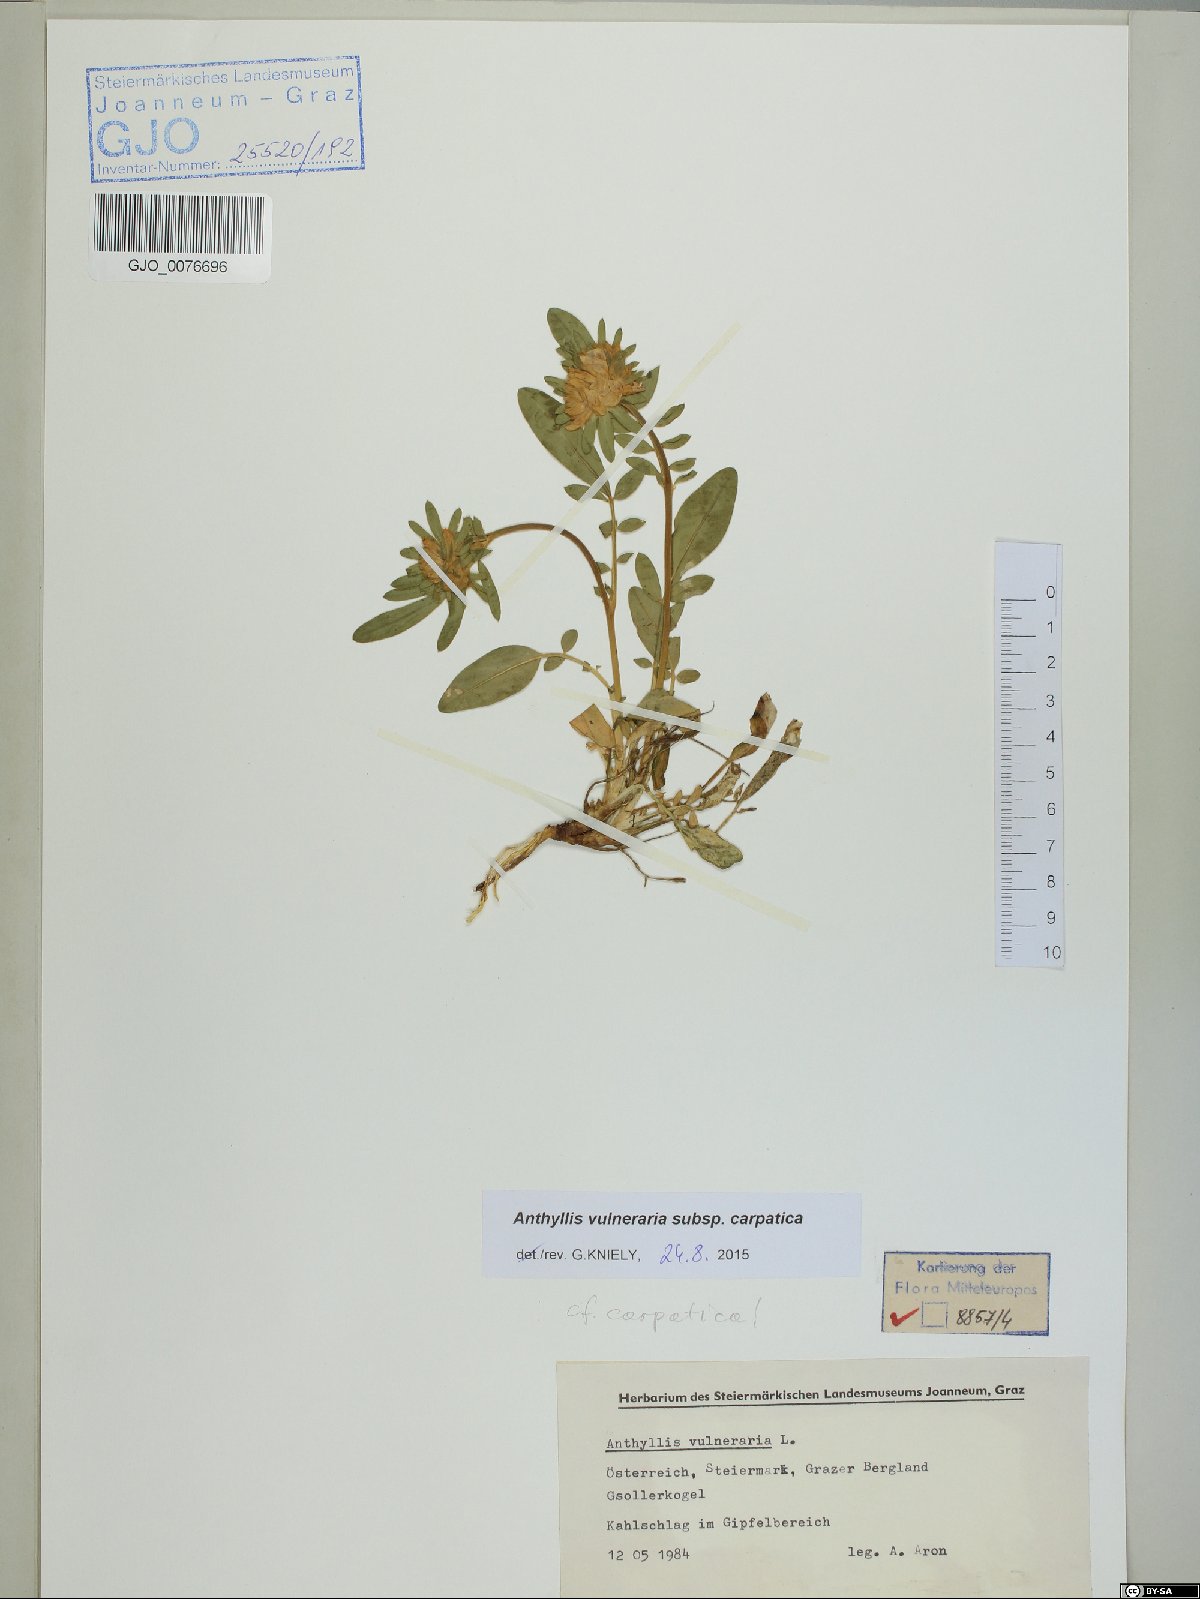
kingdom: Plantae
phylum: Tracheophyta
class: Magnoliopsida
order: Fabales
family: Fabaceae
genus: Anthyllis
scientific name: Anthyllis vulneraria
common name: Kidney vetch
